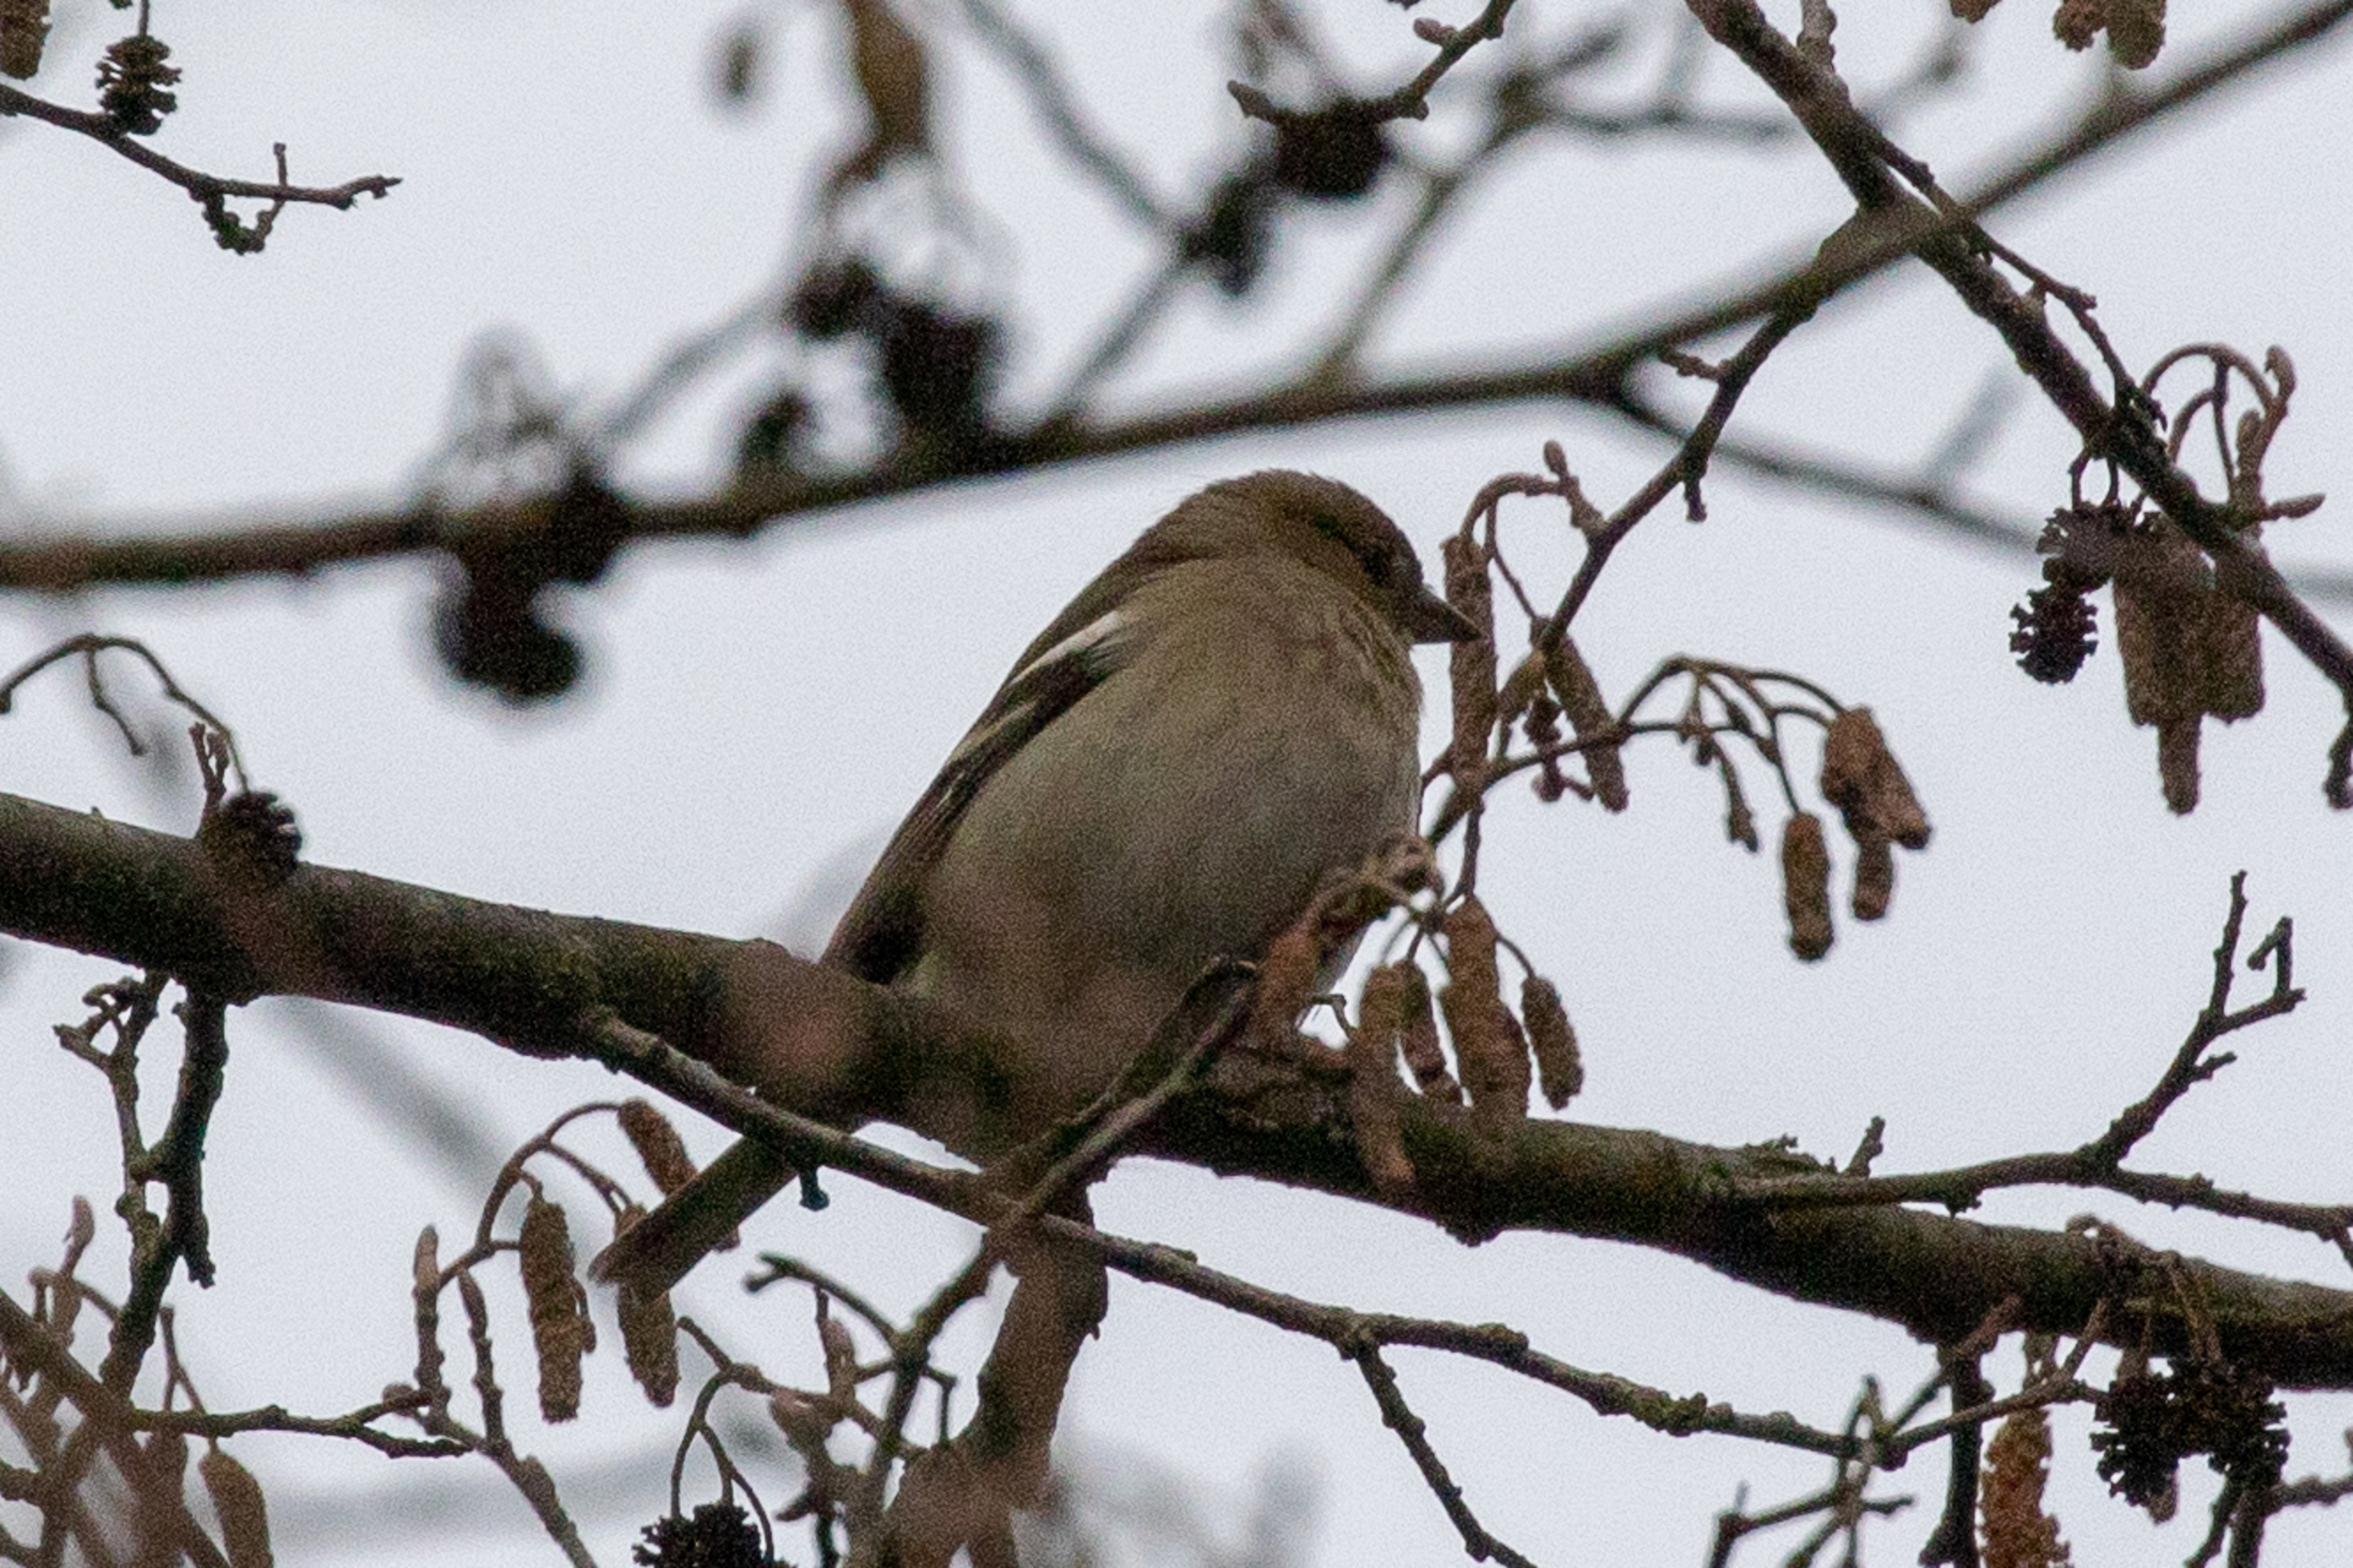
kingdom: Animalia
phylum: Chordata
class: Aves
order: Passeriformes
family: Fringillidae
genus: Fringilla
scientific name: Fringilla coelebs
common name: Bogfinke
